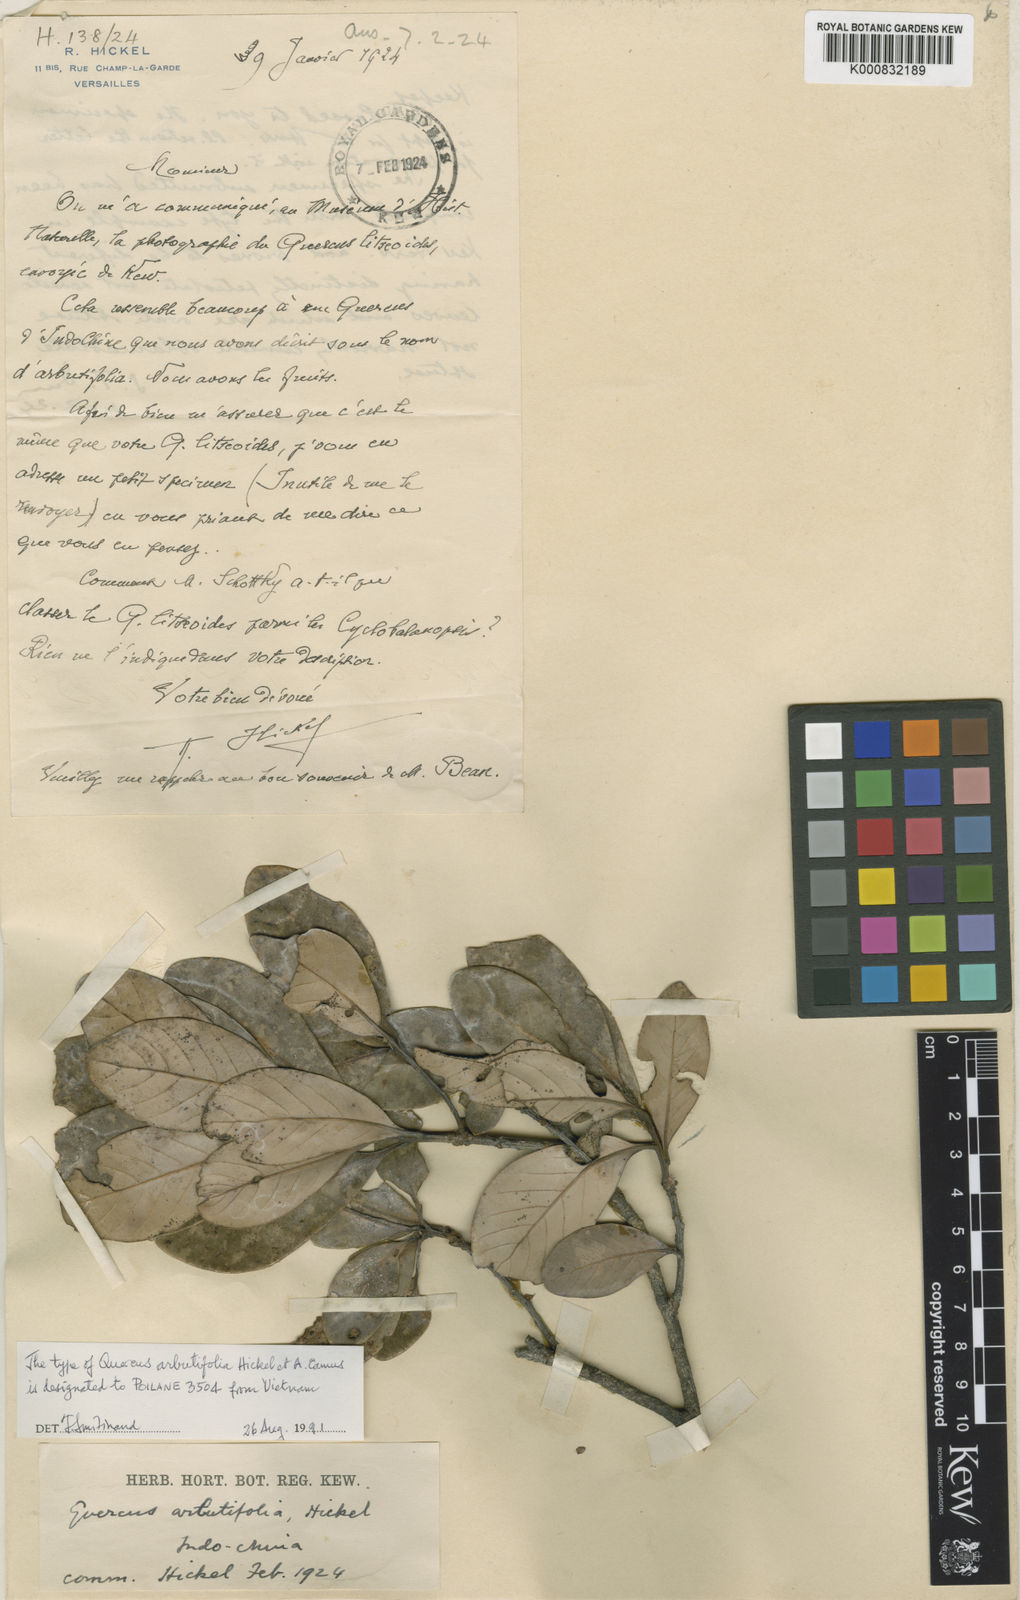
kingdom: Plantae
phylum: Tracheophyta
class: Magnoliopsida
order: Fagales
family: Fagaceae
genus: Quercus
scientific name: Quercus arbutifolia
